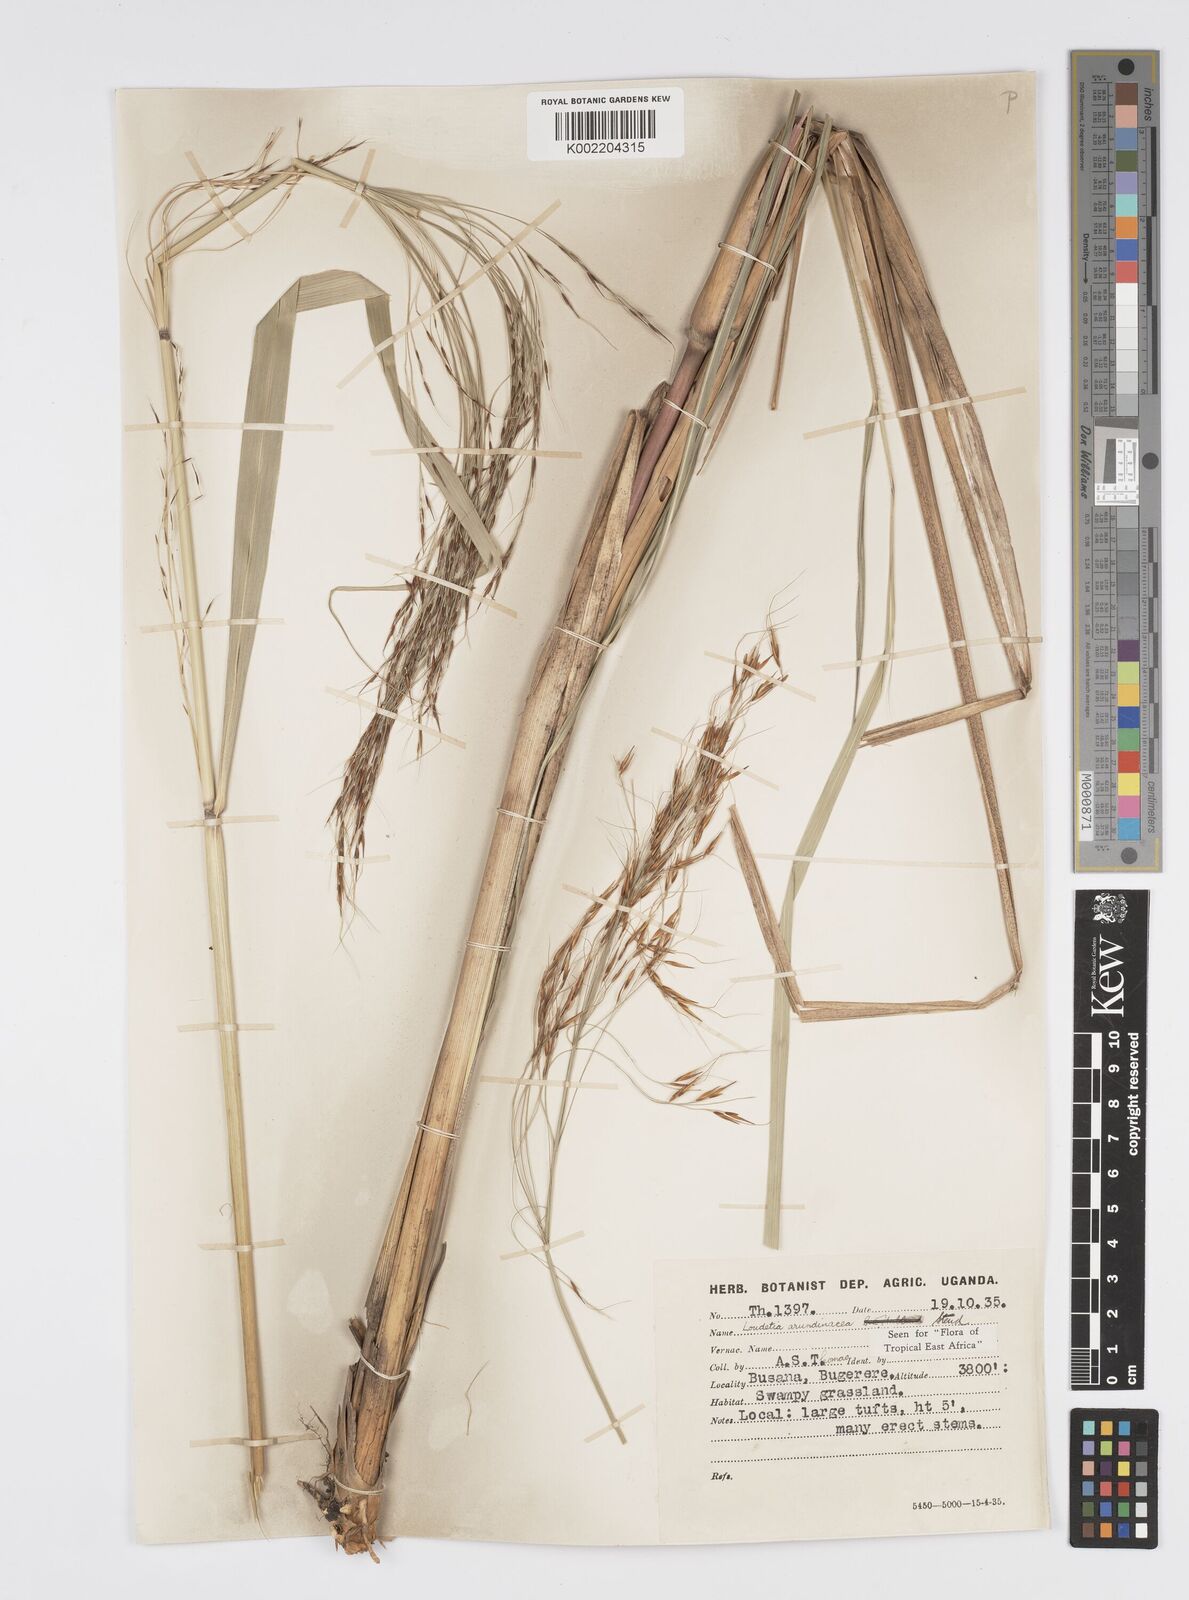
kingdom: Plantae
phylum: Tracheophyta
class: Liliopsida
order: Poales
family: Poaceae
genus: Loudetia
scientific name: Loudetia arundinacea
